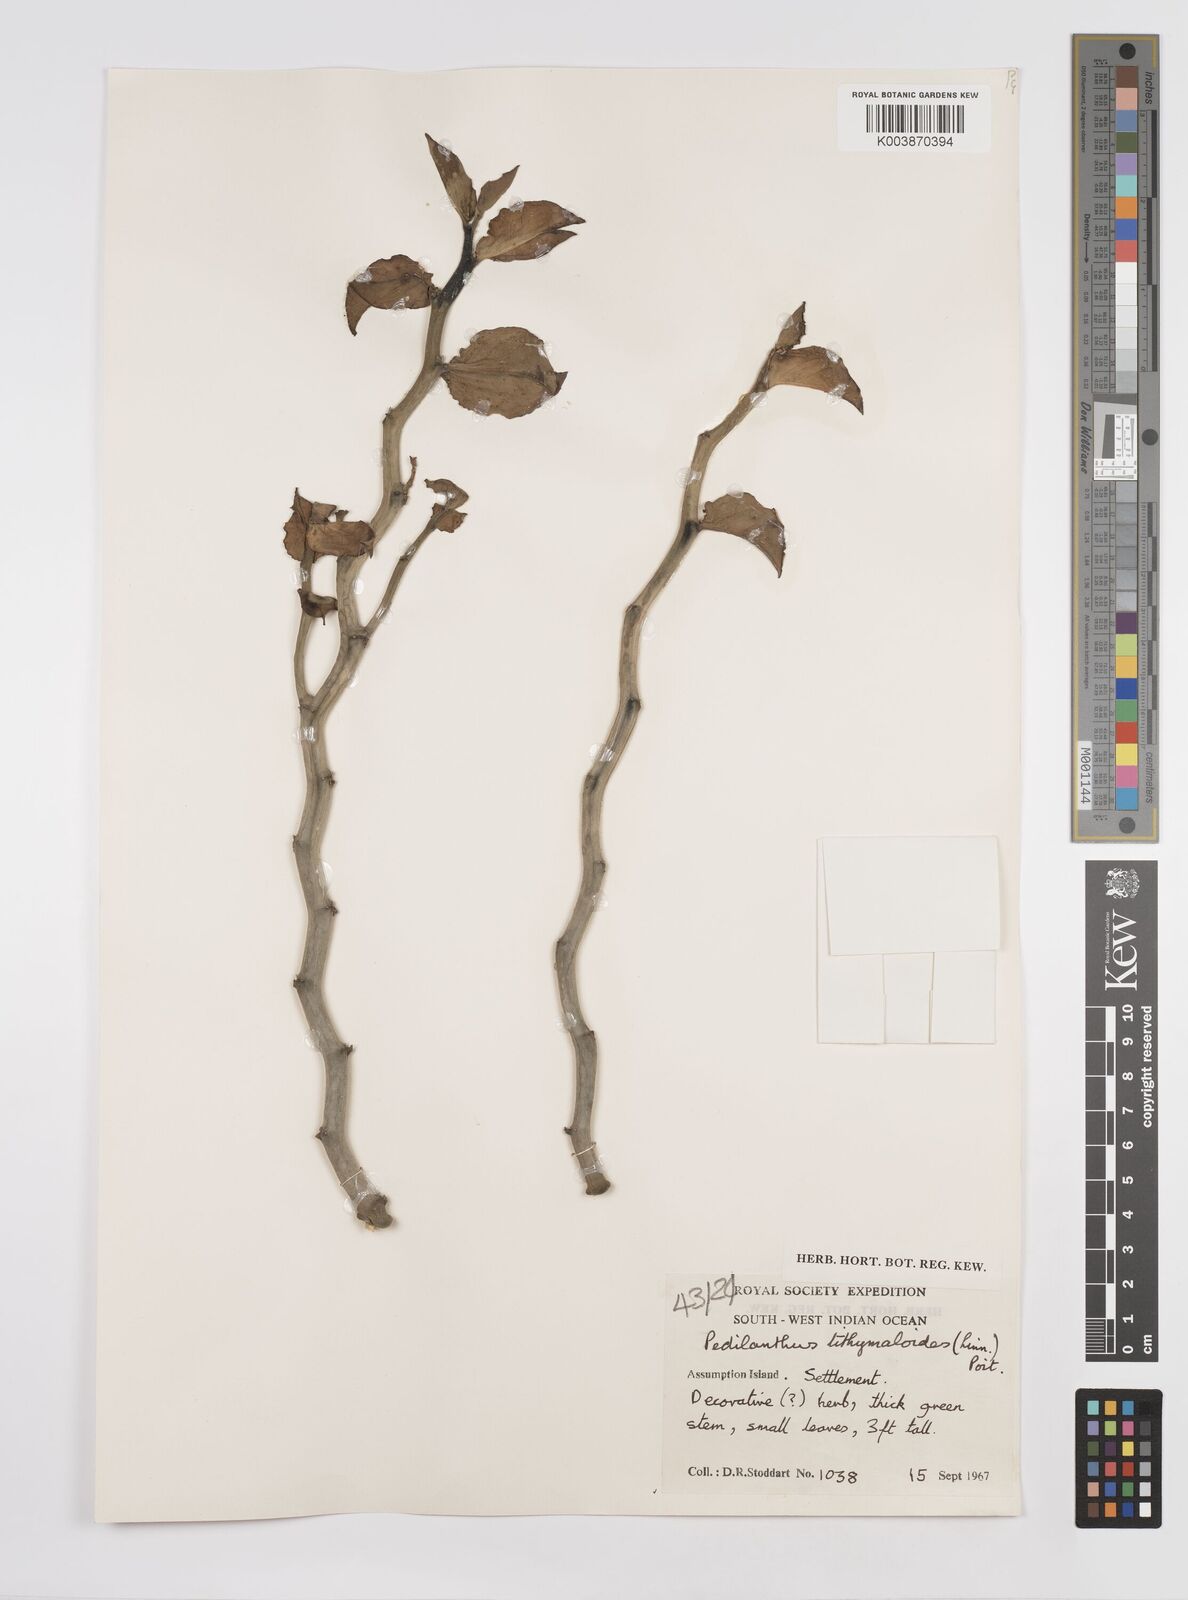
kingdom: Plantae
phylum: Tracheophyta
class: Magnoliopsida
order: Malpighiales
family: Euphorbiaceae
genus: Euphorbia
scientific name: Euphorbia tithymaloides
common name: Slipperplant
